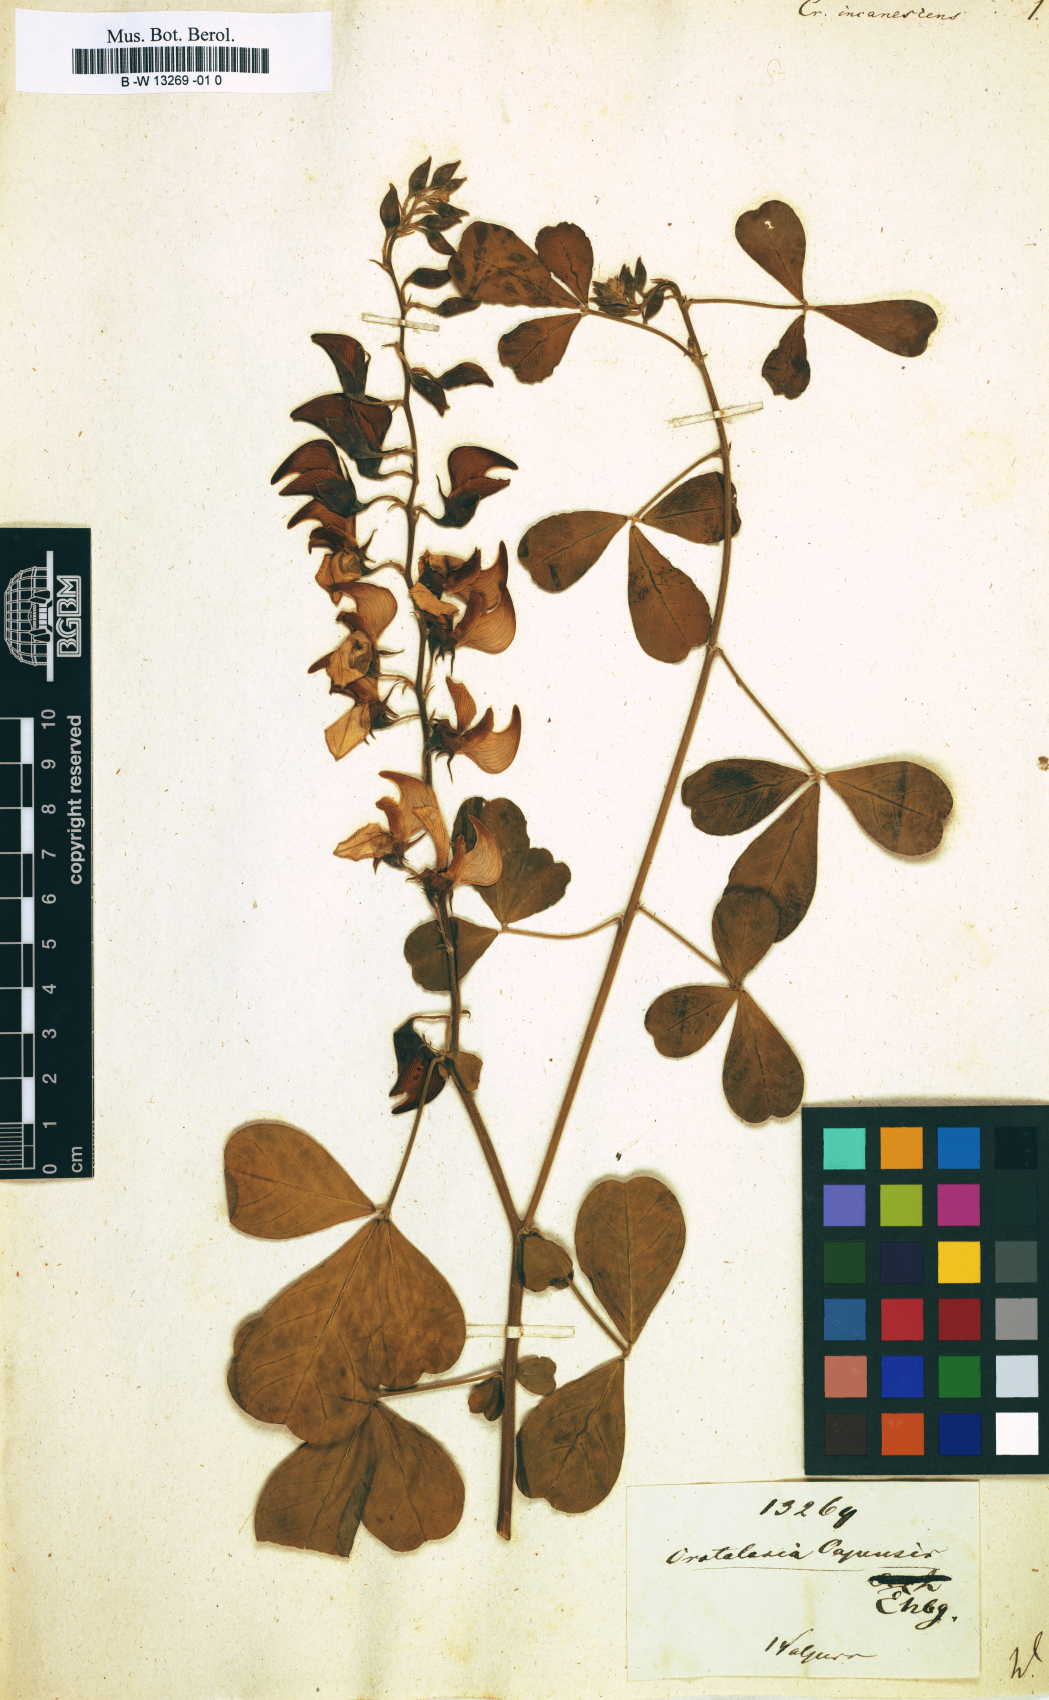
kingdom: Plantae
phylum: Tracheophyta
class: Magnoliopsida
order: Fabales
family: Fabaceae
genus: Crotalaria
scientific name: Crotalaria capensis
